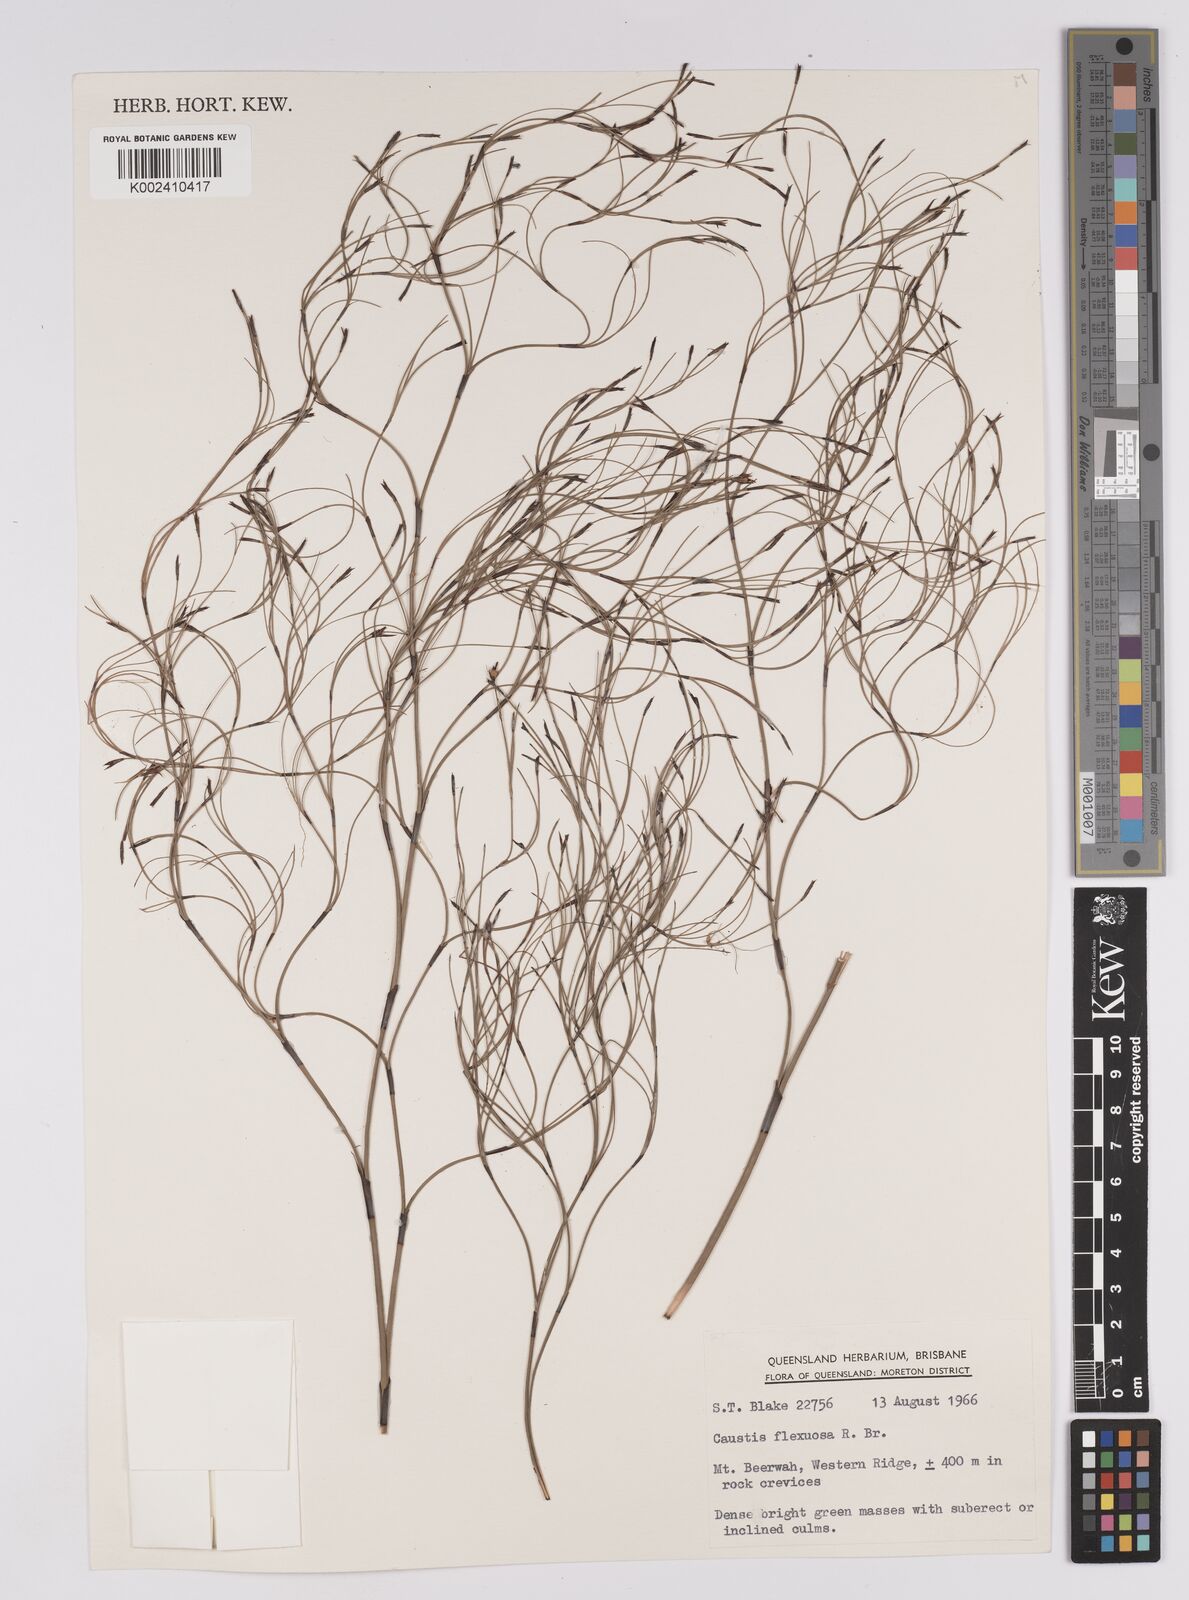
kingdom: Plantae
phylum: Tracheophyta
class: Liliopsida
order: Poales
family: Cyperaceae
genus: Caustis
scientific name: Caustis flexuosa
